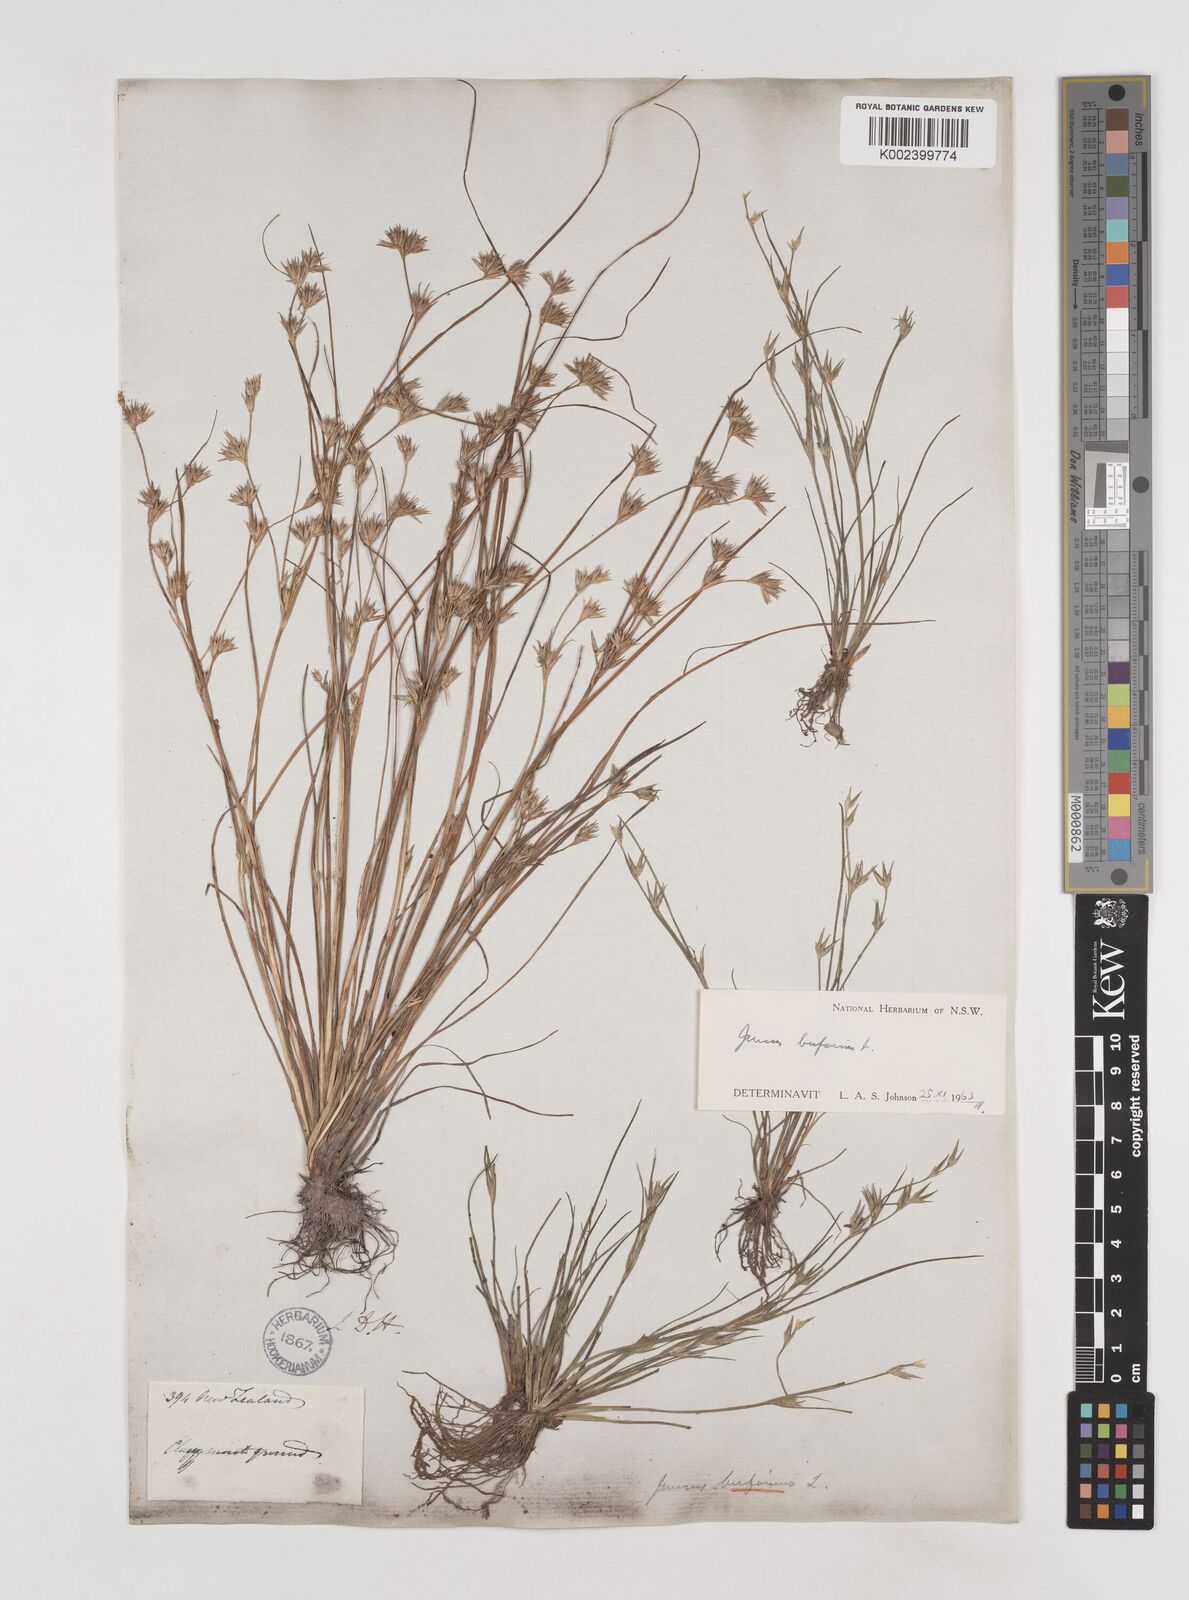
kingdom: Plantae
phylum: Tracheophyta
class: Liliopsida
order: Poales
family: Juncaceae
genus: Juncus
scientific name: Juncus bufonius
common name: Toad rush
